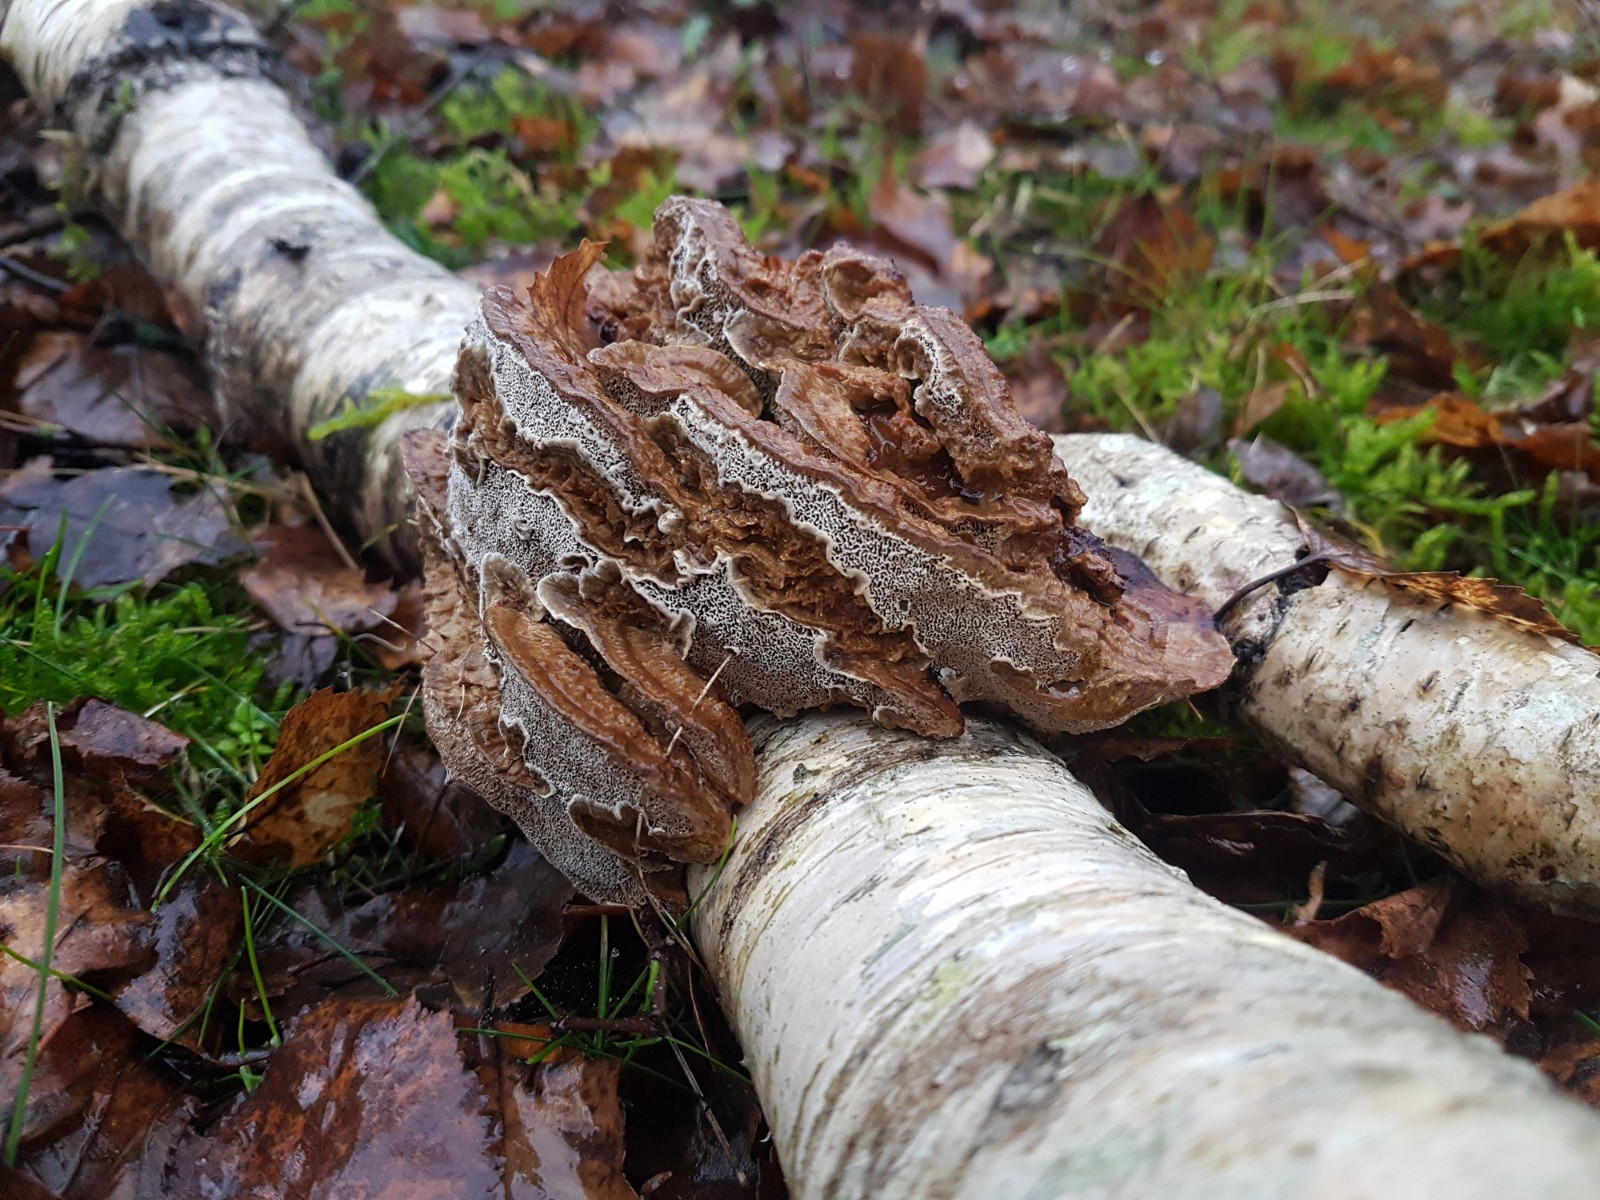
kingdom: Fungi
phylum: Basidiomycota
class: Agaricomycetes
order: Polyporales
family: Polyporaceae
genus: Daedaleopsis
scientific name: Daedaleopsis confragosa
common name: rødmende læderporesvamp
